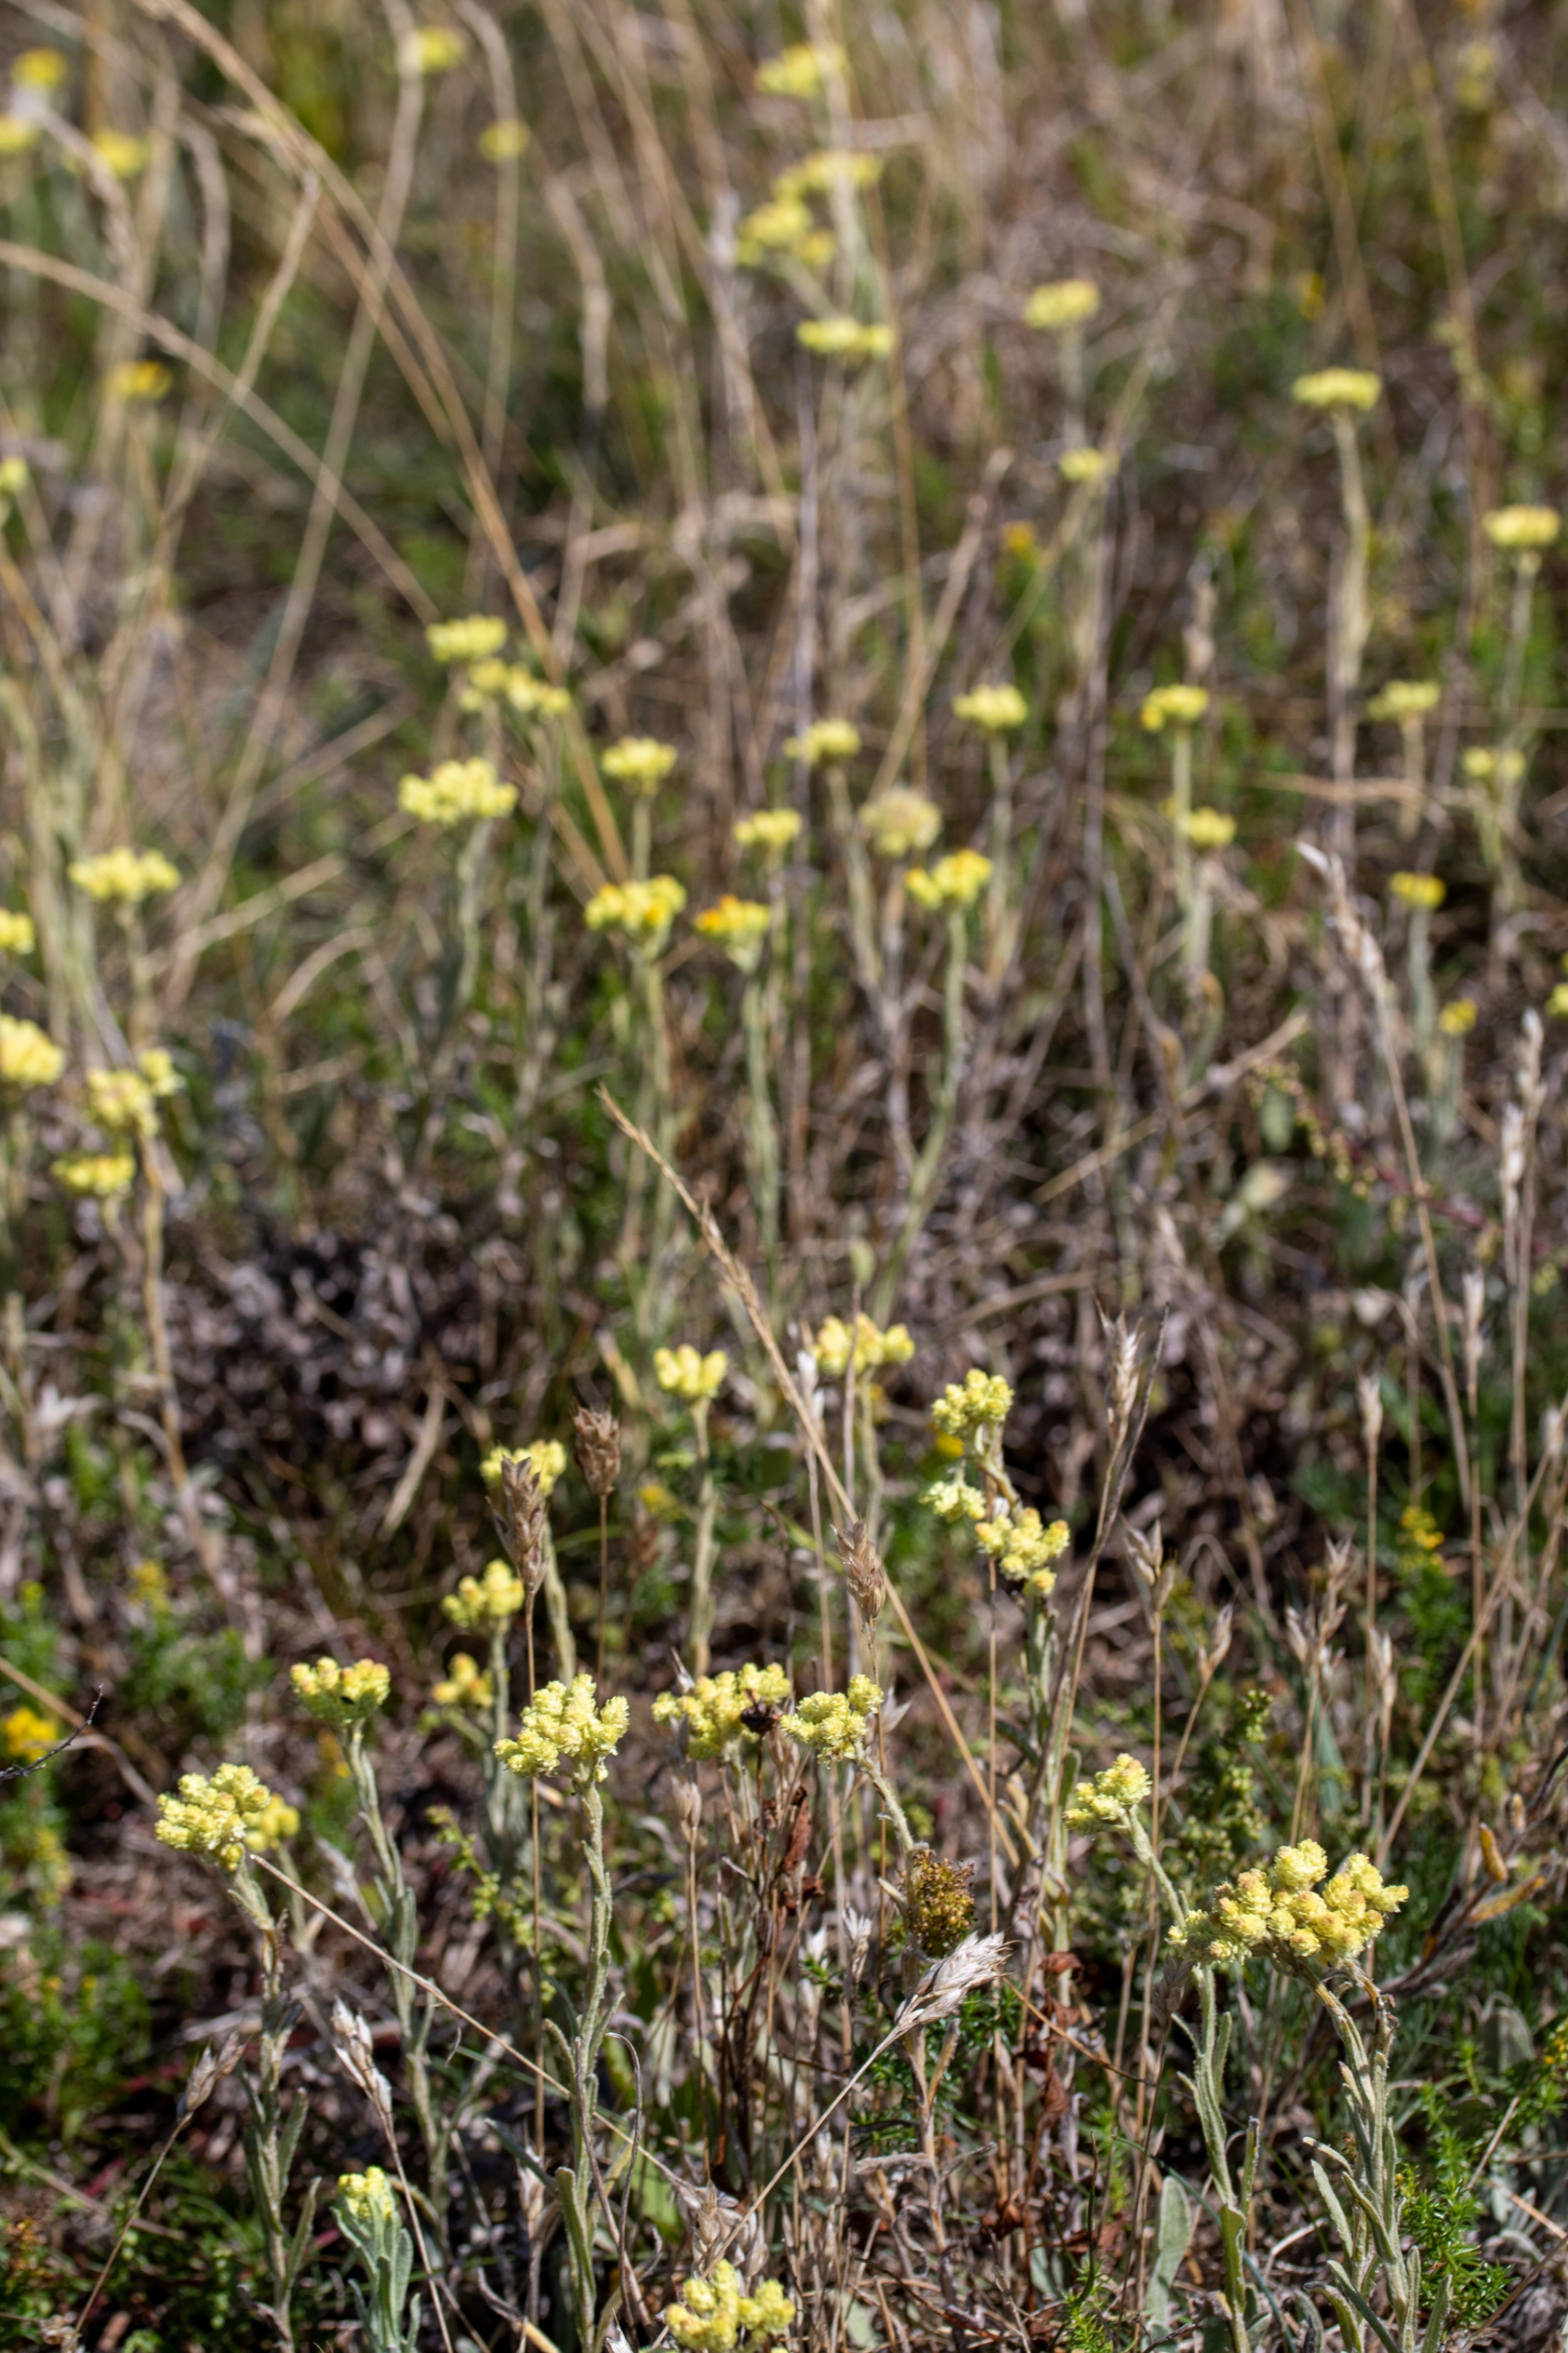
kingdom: Plantae
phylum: Tracheophyta
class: Magnoliopsida
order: Asterales
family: Asteraceae
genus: Helichrysum
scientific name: Helichrysum arenarium
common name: Gul evighedsblomst
